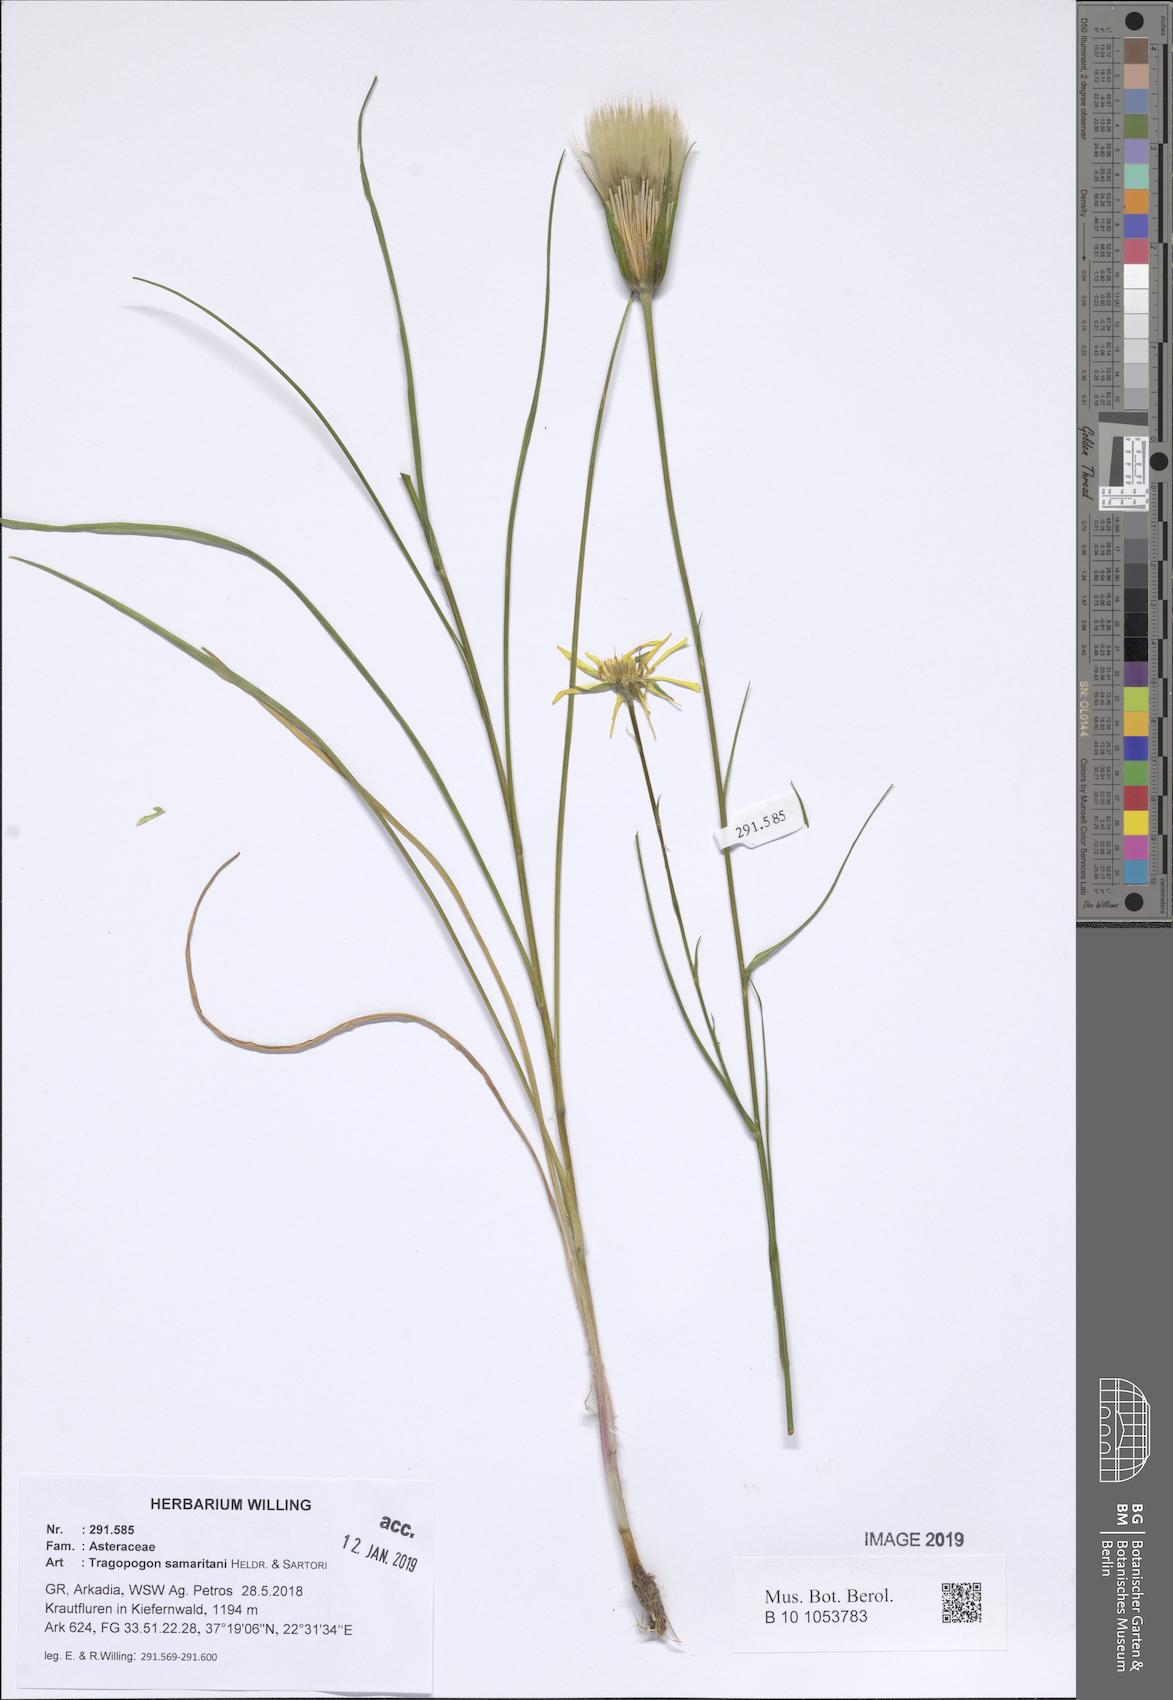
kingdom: Plantae
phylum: Tracheophyta
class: Magnoliopsida
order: Asterales
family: Asteraceae
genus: Tragopogon
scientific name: Tragopogon samaritani
